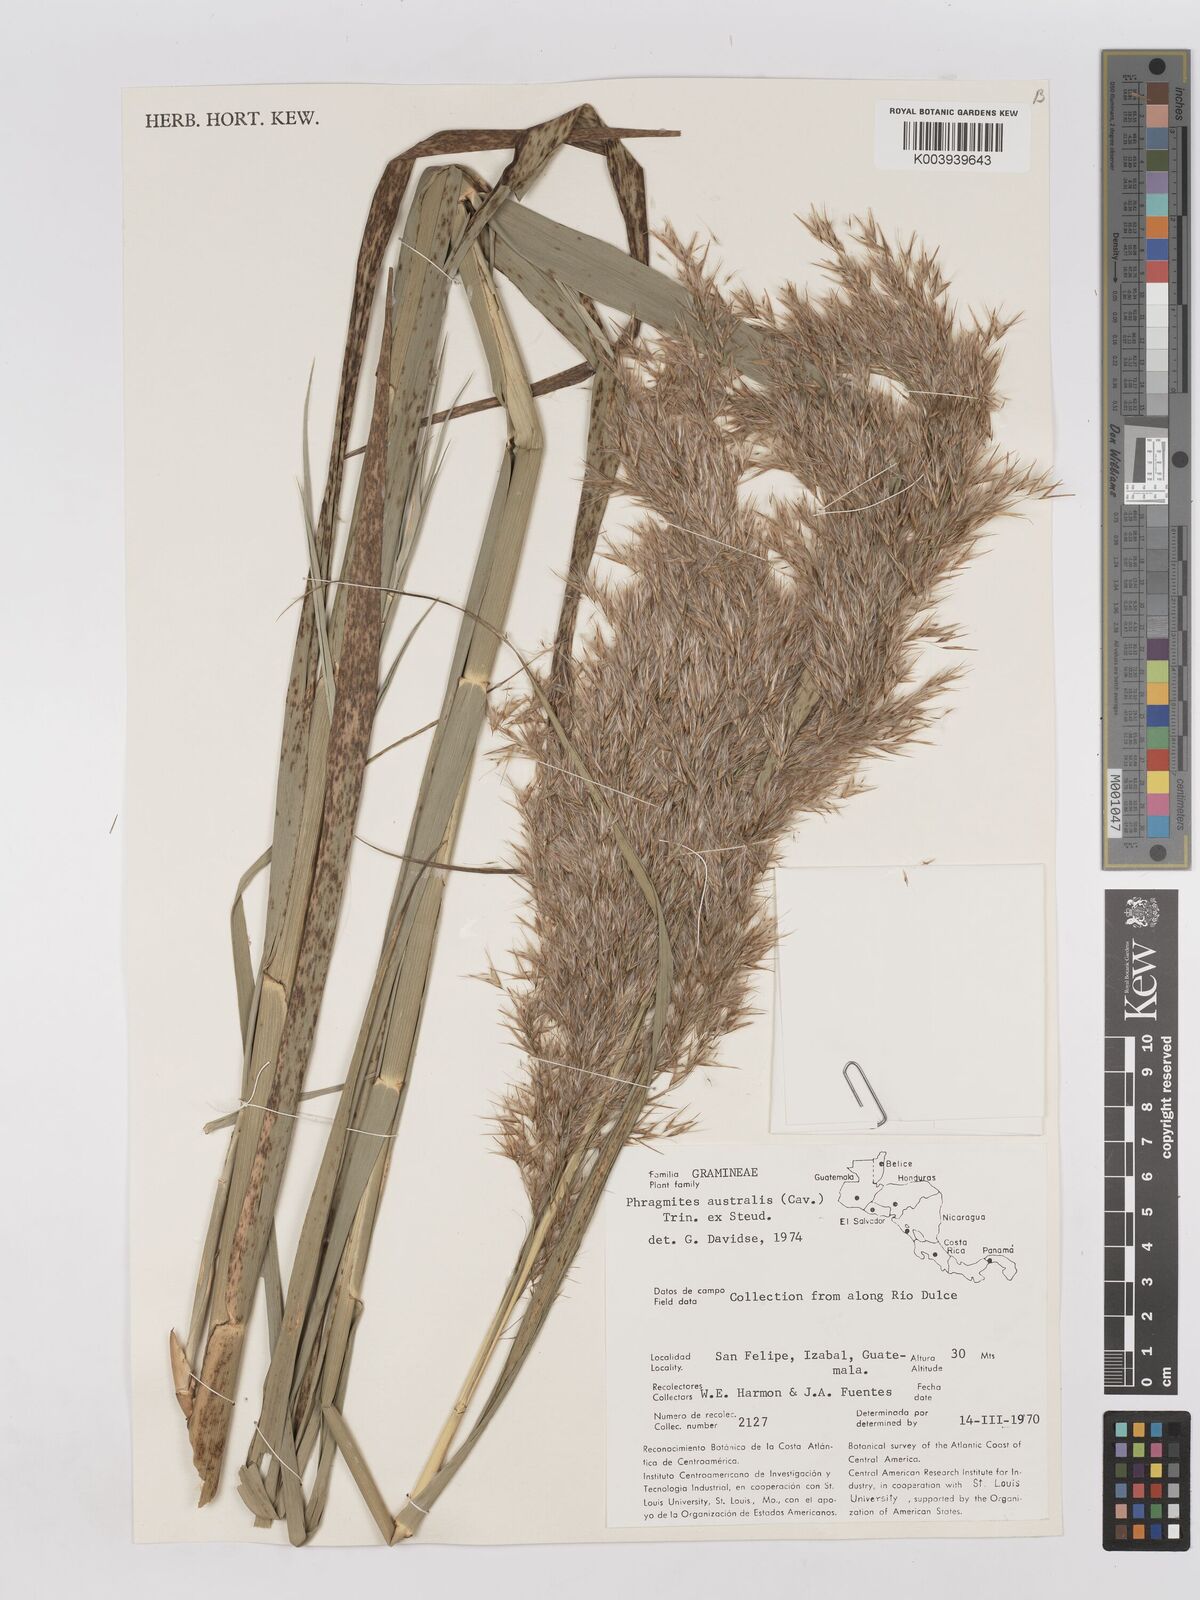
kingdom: Plantae
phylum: Tracheophyta
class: Liliopsida
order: Poales
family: Poaceae
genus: Phragmites
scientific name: Phragmites australis
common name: Common reed
